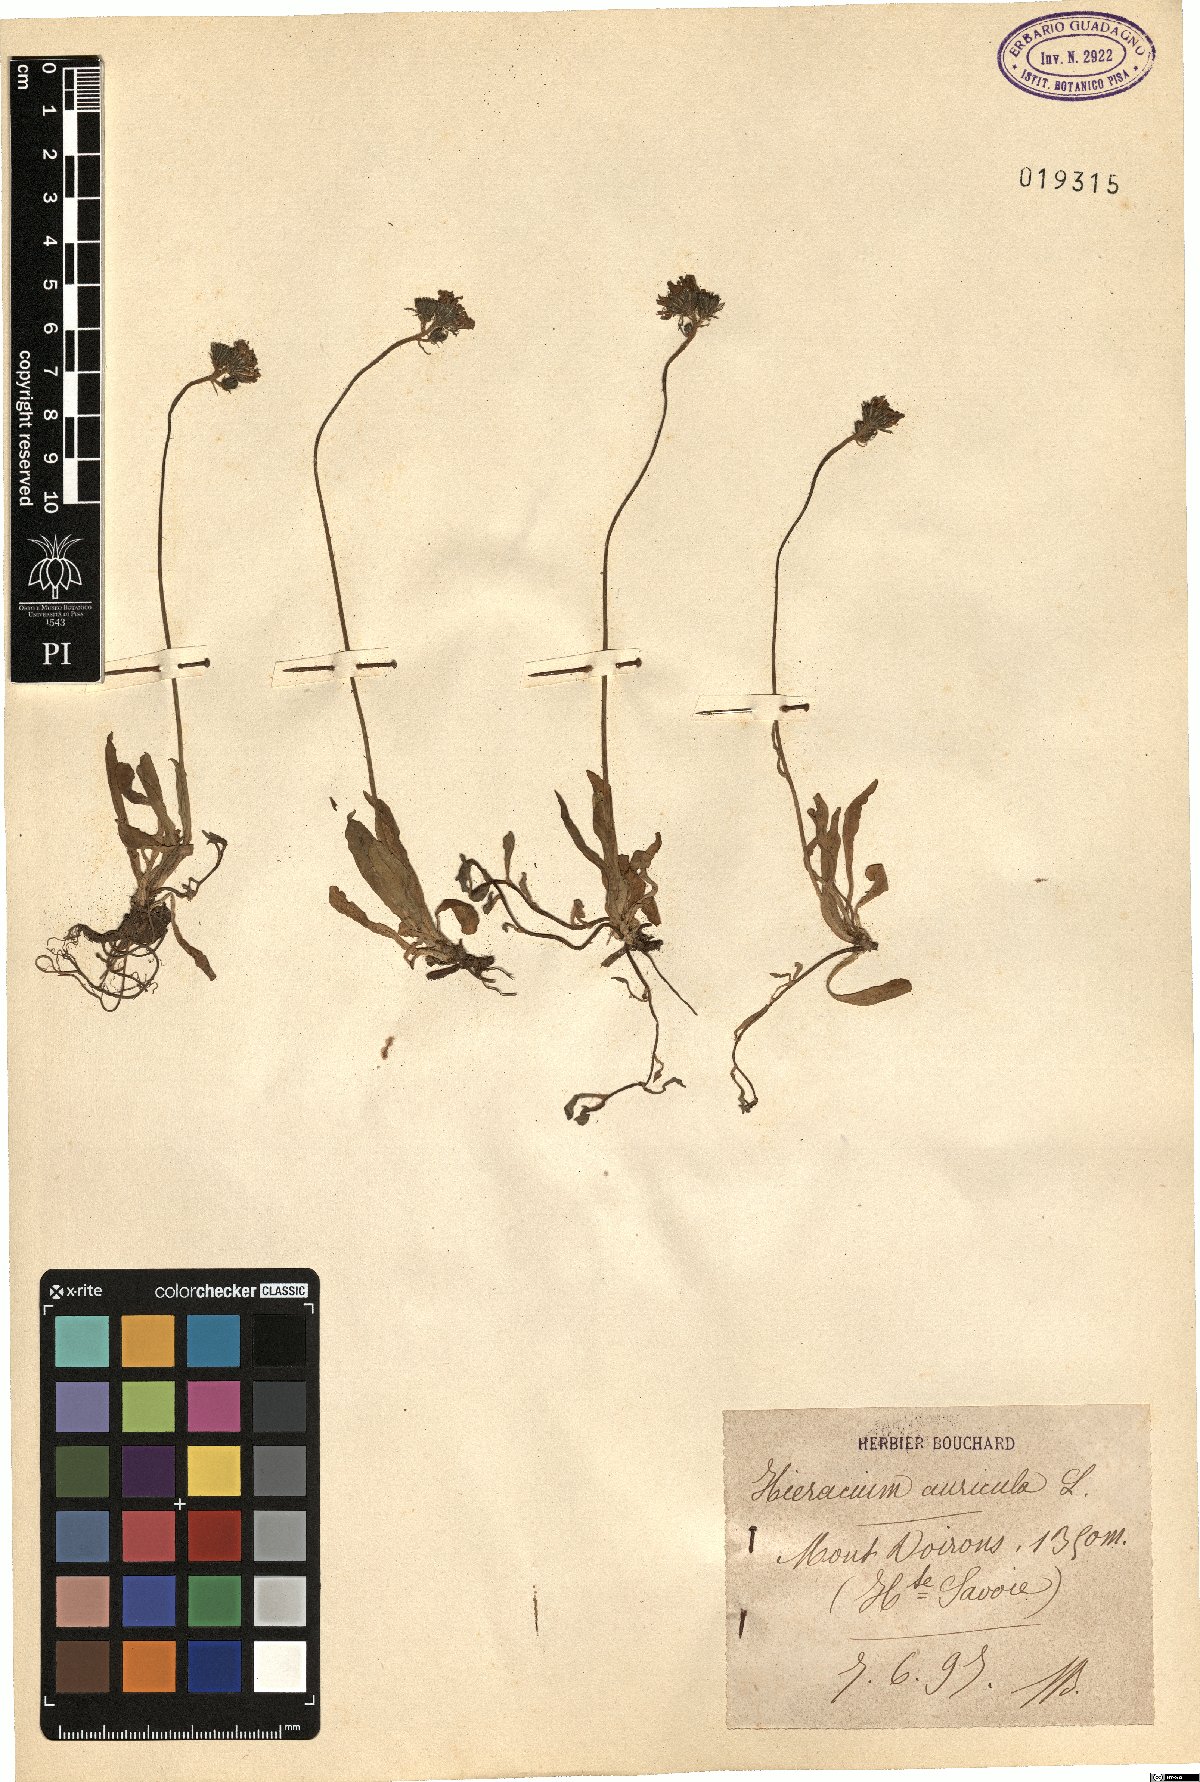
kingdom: Plantae
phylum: Tracheophyta
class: Magnoliopsida
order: Asterales
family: Asteraceae
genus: Pilosella
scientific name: Pilosella floribunda
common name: Glaucous hawkweed
